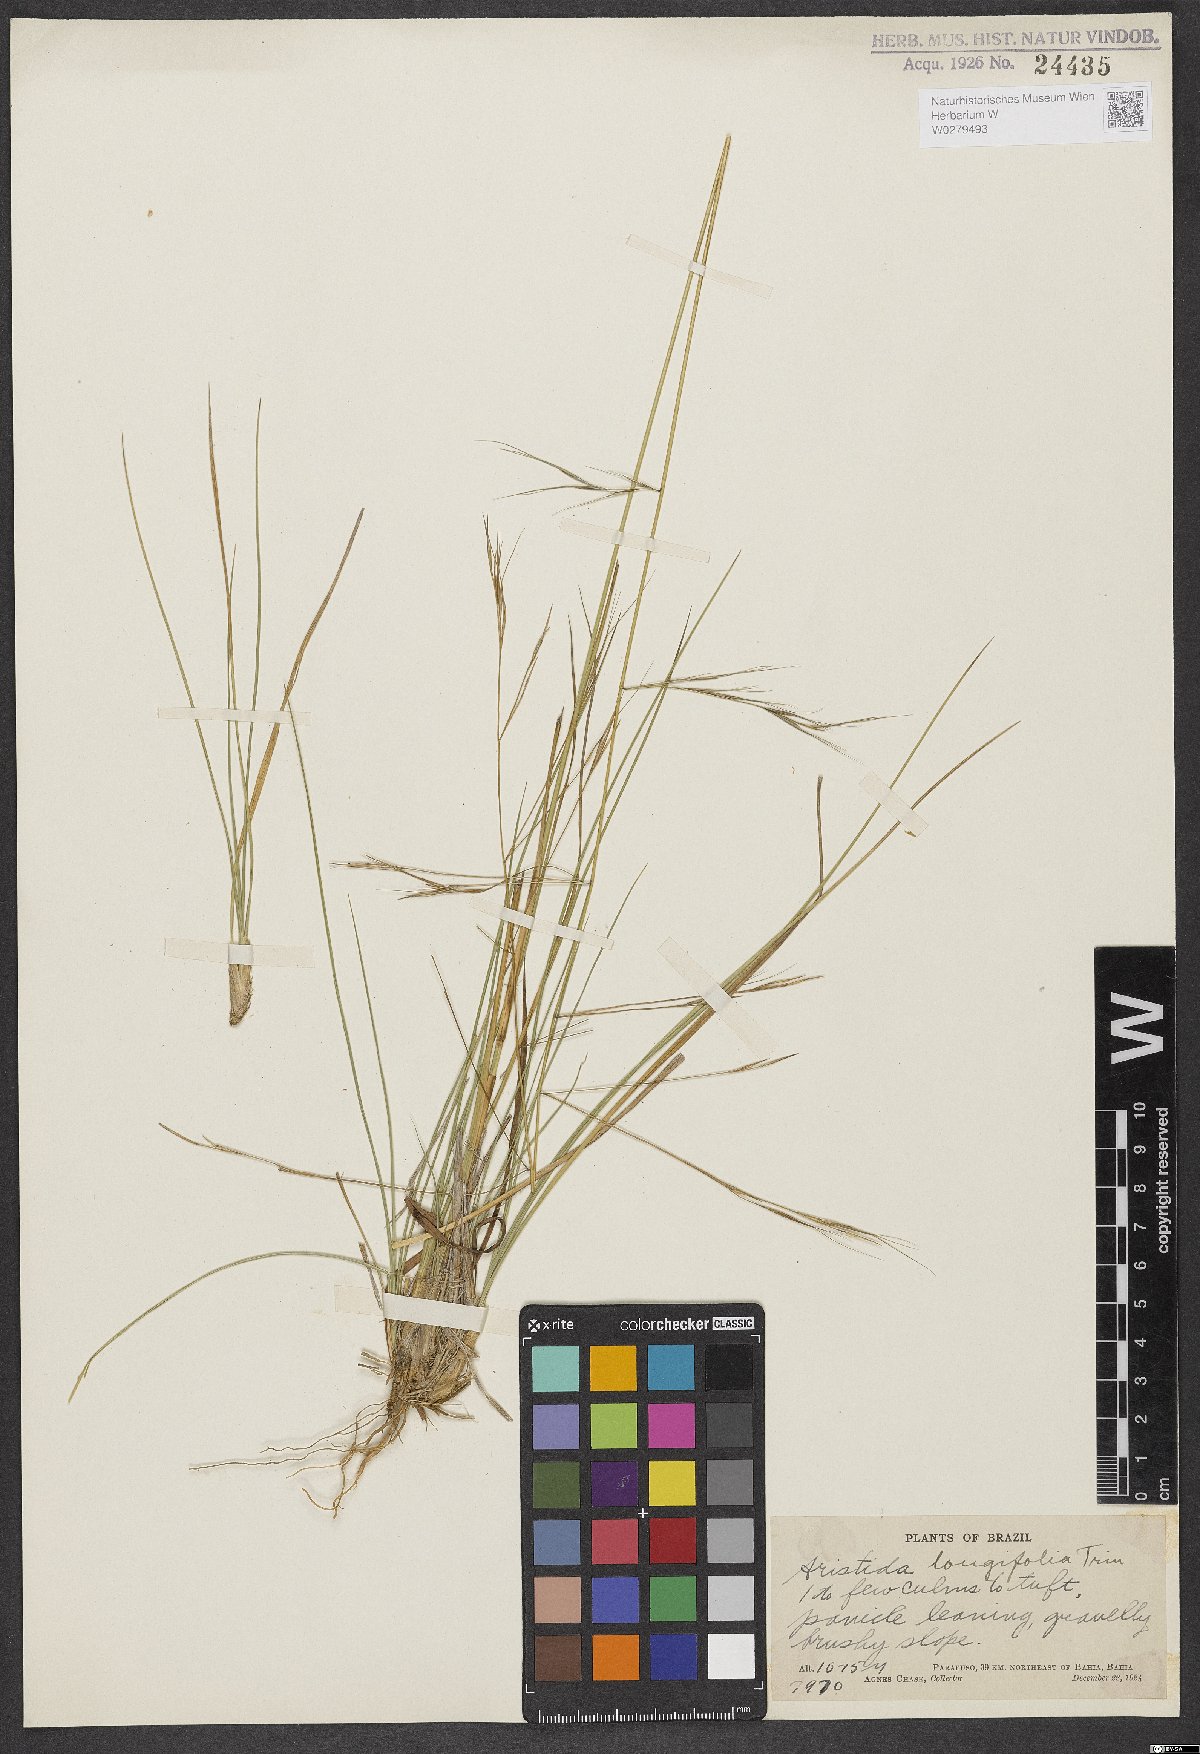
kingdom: Plantae
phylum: Tracheophyta
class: Liliopsida
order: Poales
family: Poaceae
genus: Aristida
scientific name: Aristida longifolia
